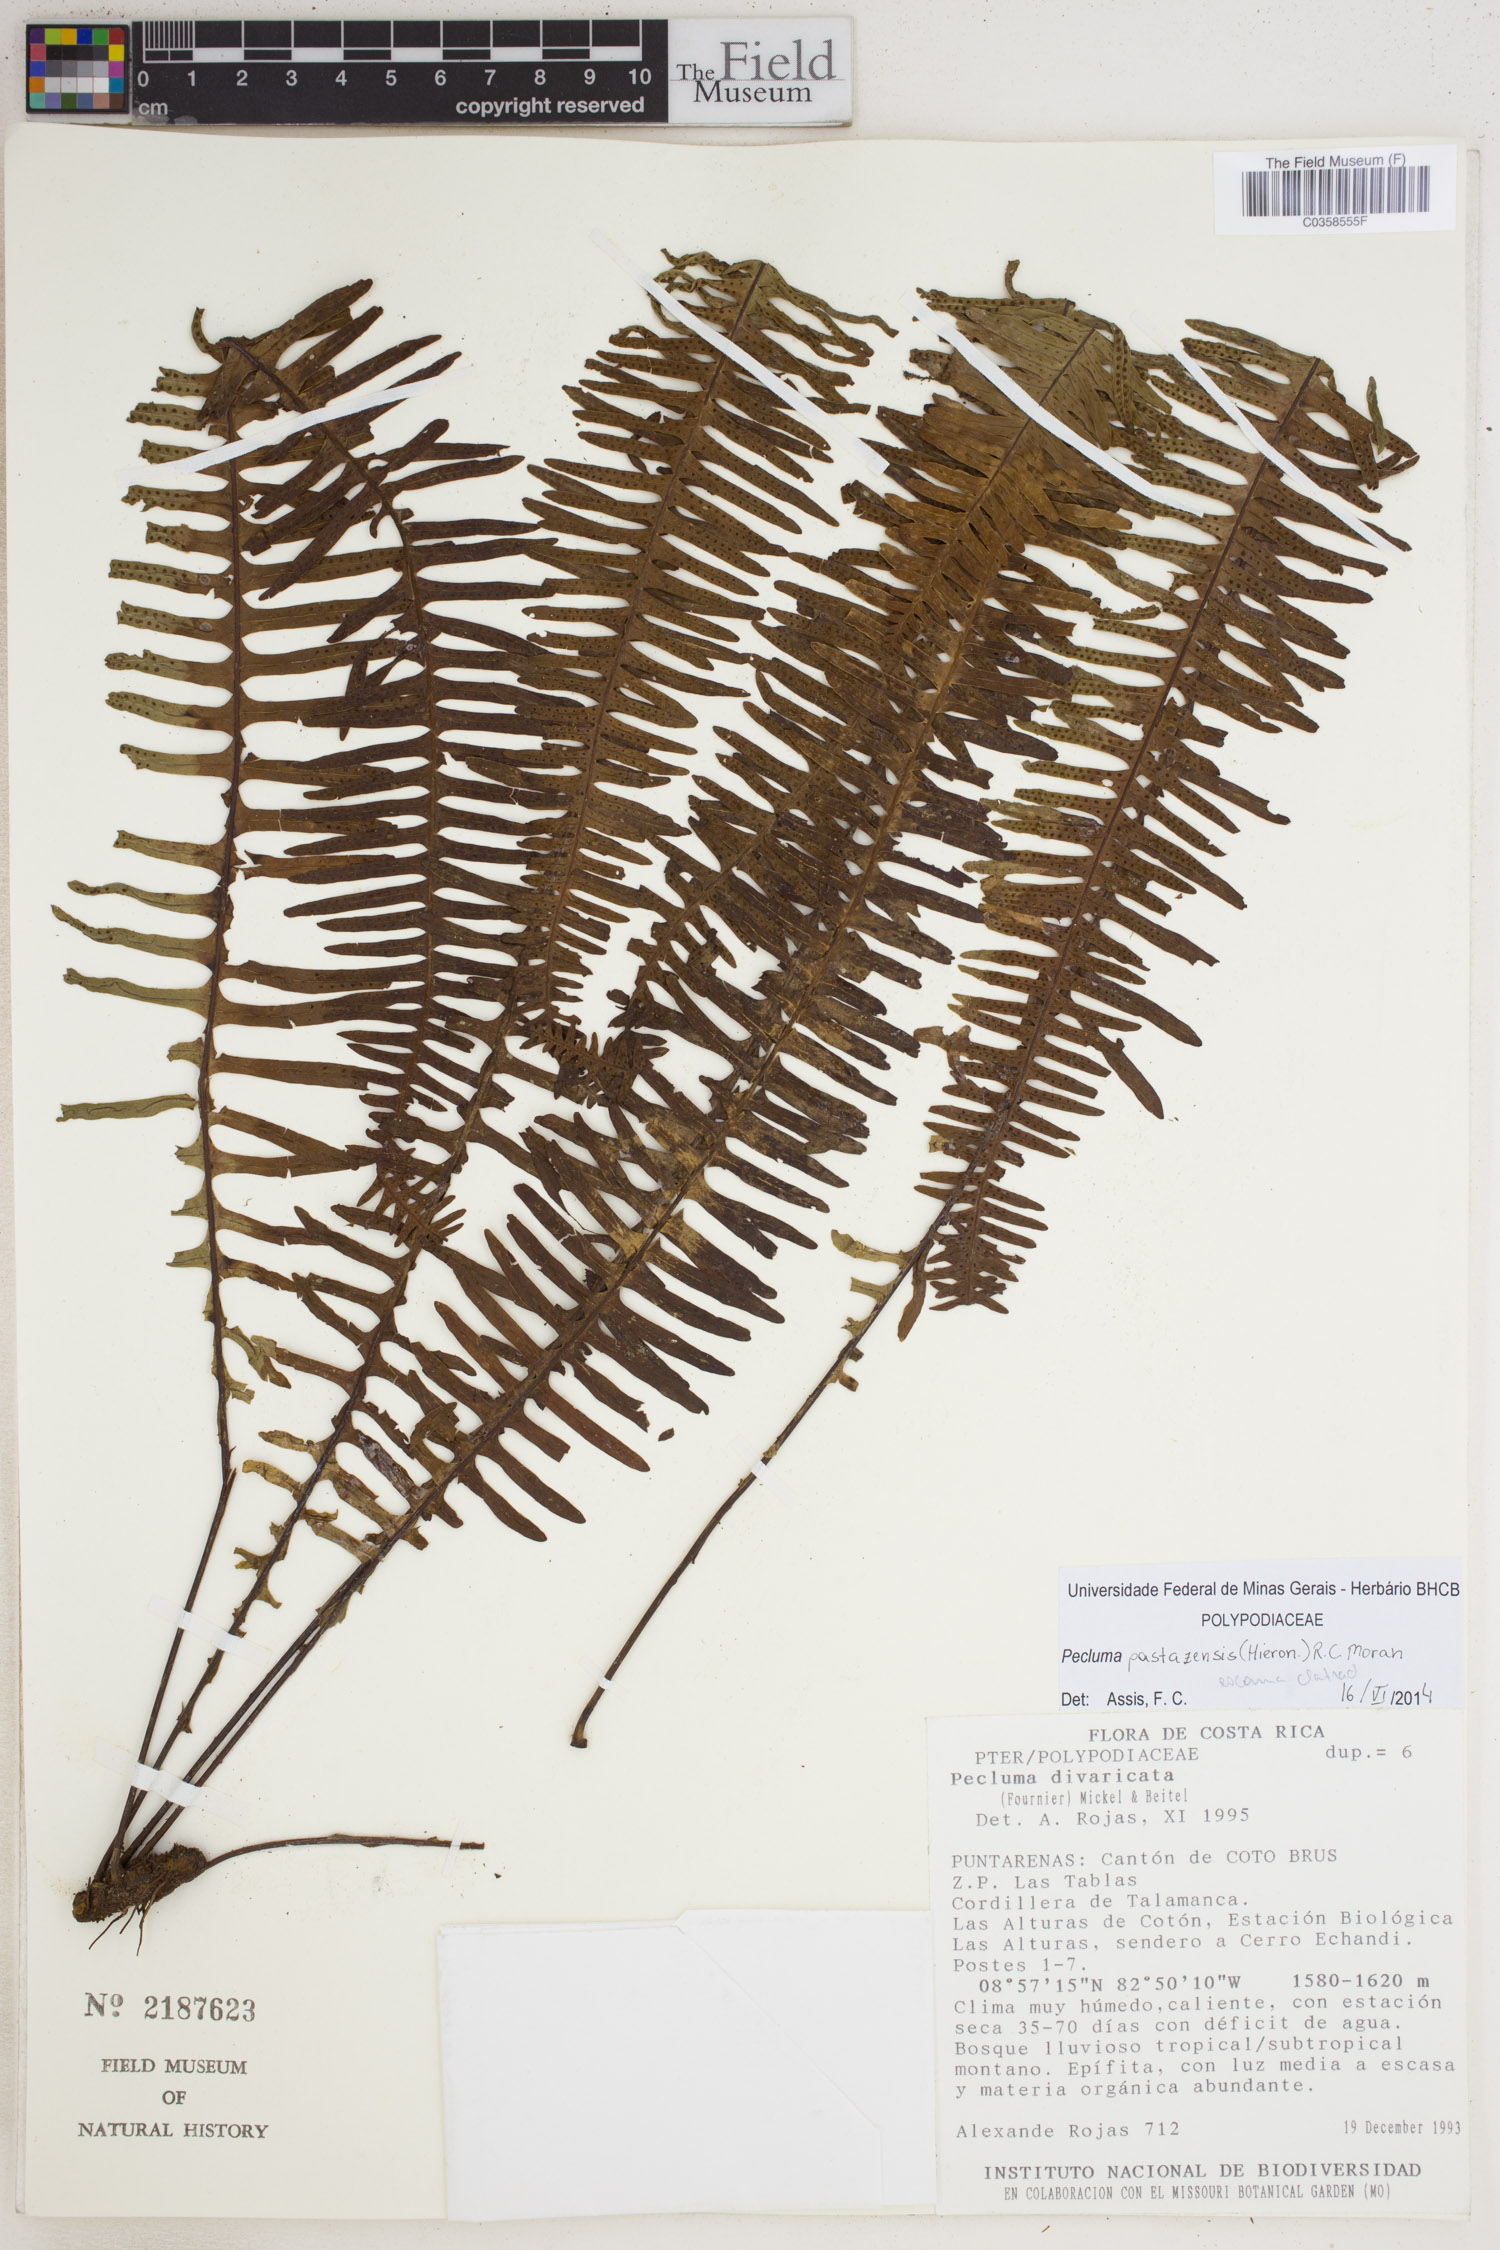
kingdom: Plantae
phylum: Tracheophyta
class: Polypodiopsida
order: Polypodiales
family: Polypodiaceae
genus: Pecluma
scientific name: Pecluma pastazensis
